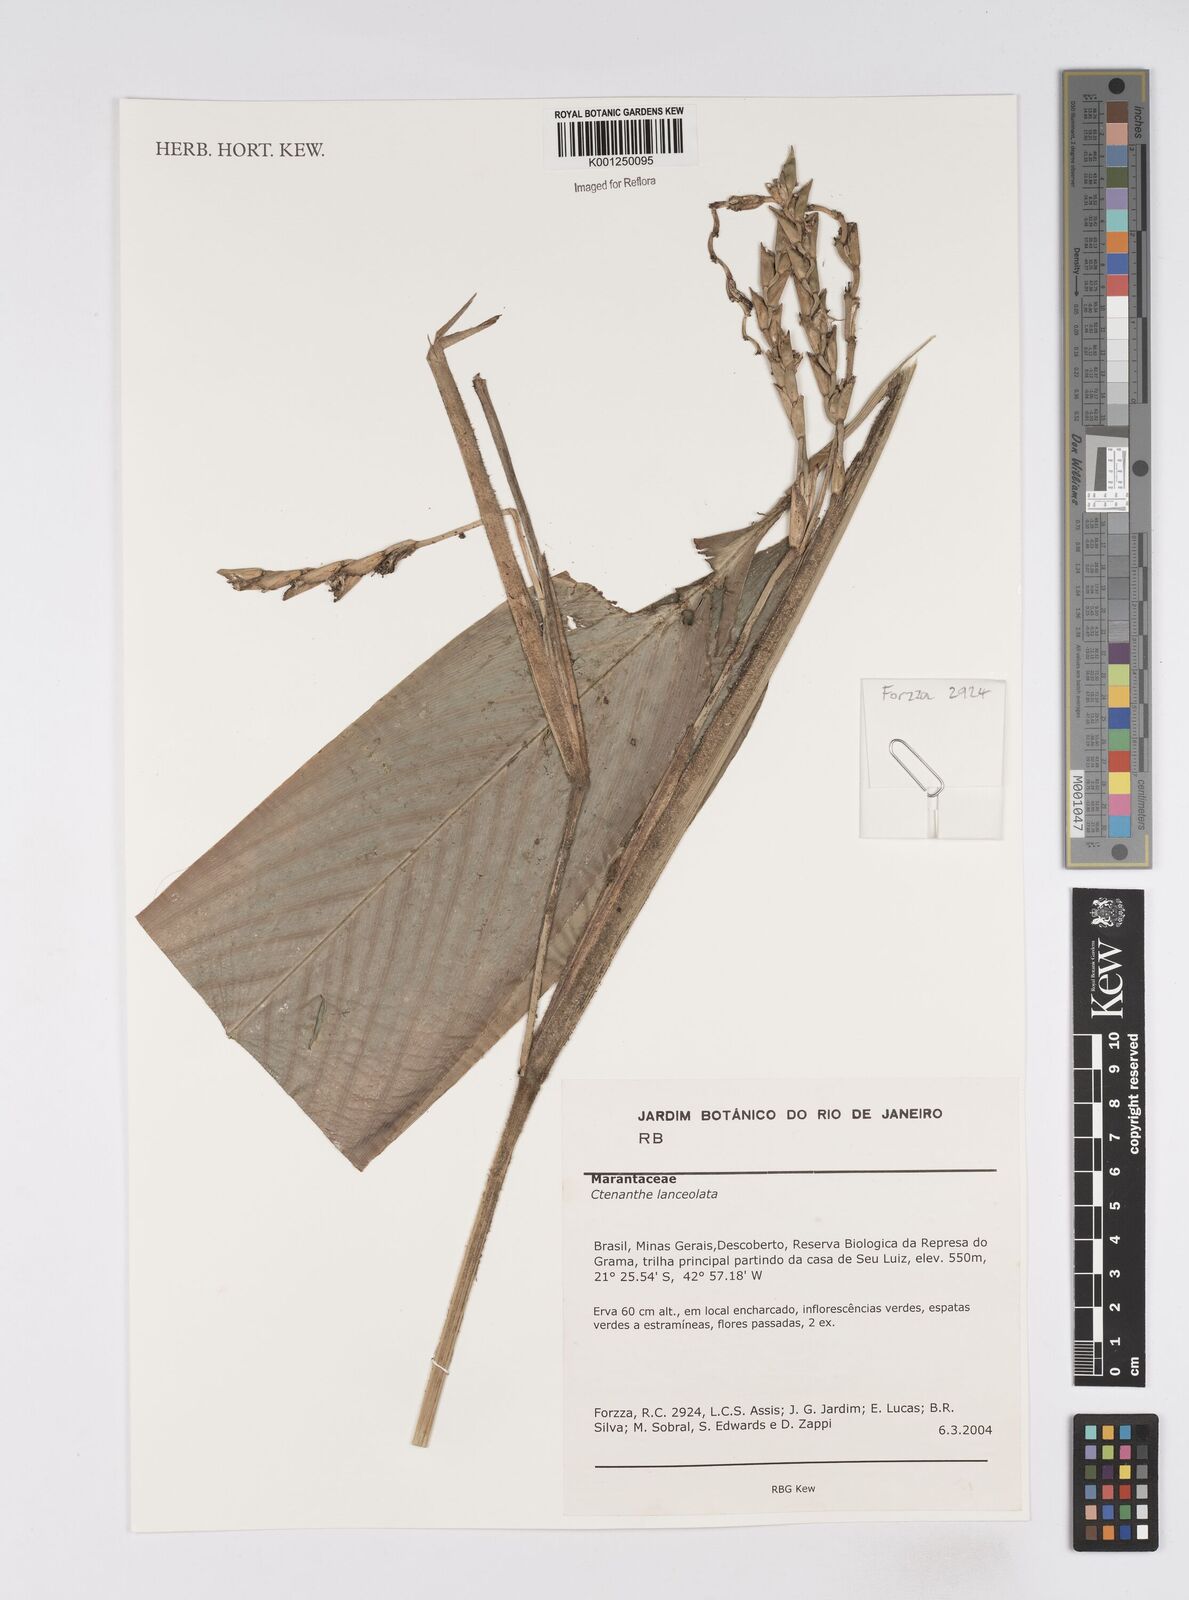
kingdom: Plantae
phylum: Tracheophyta
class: Liliopsida
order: Zingiberales
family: Marantaceae
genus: Ctenanthe
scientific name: Ctenanthe lanceolata
